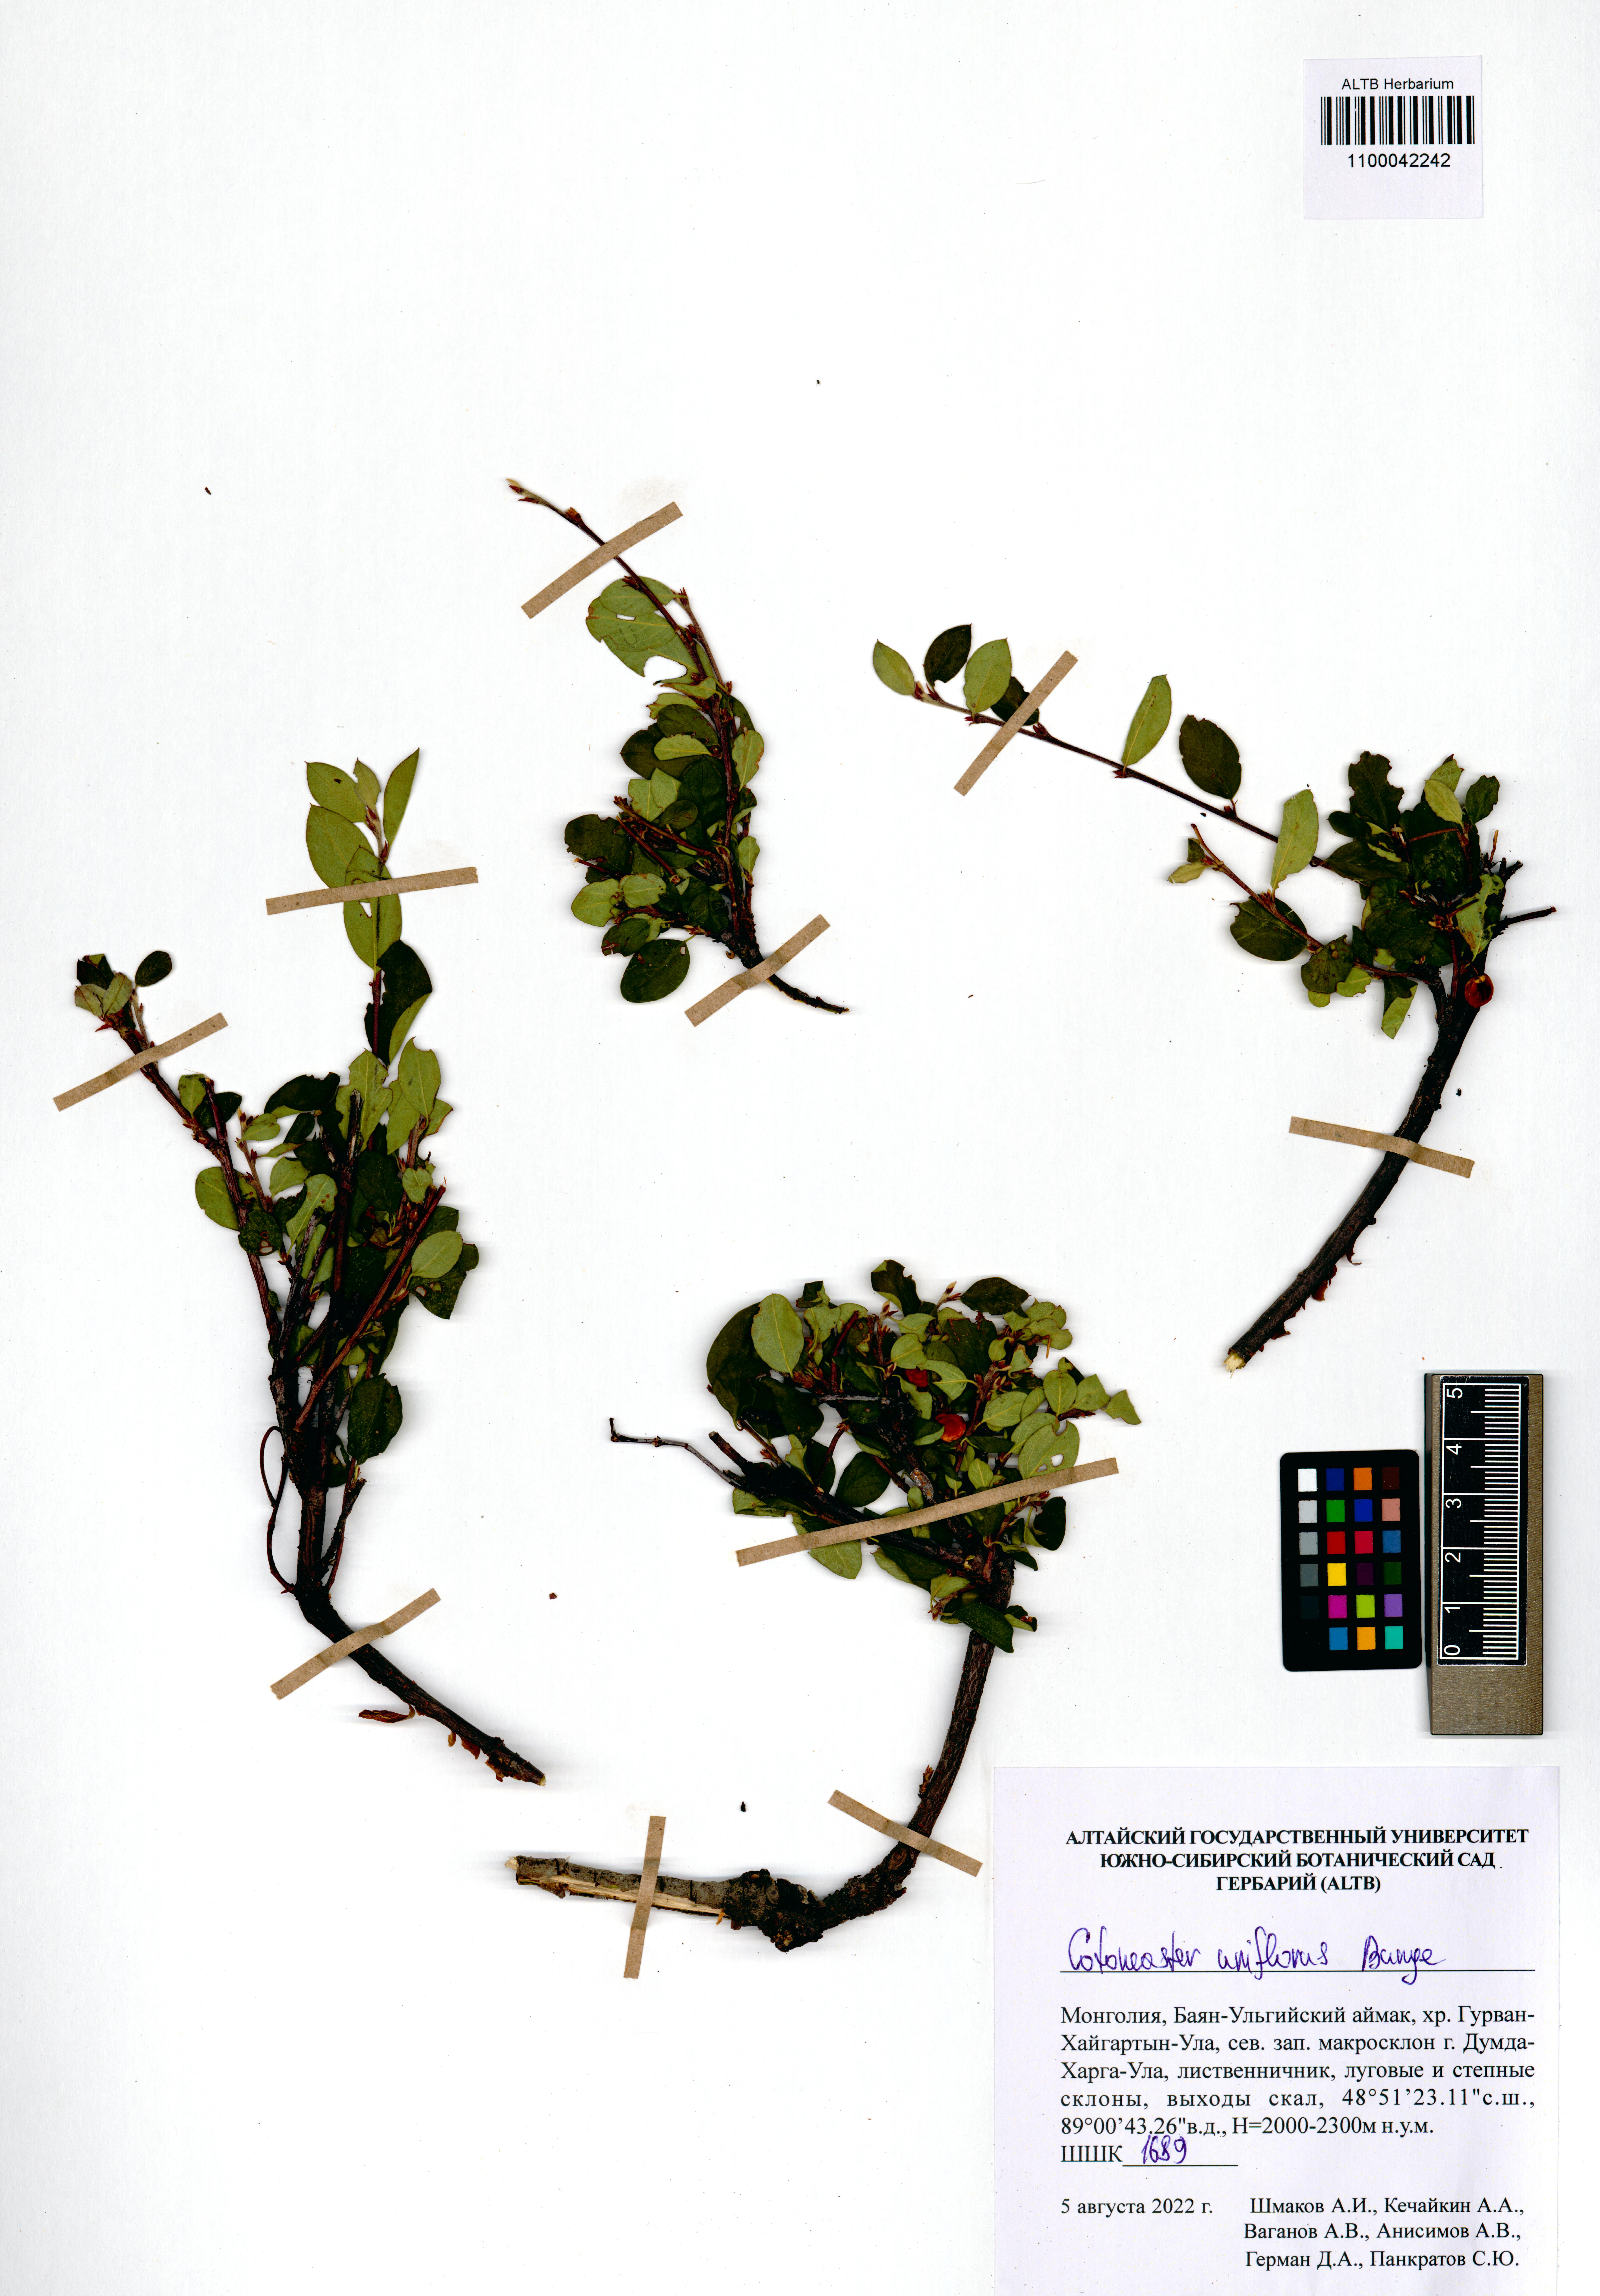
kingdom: Plantae
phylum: Tracheophyta
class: Magnoliopsida
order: Rosales
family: Rosaceae
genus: Cotoneaster
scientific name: Cotoneaster uniflorus
